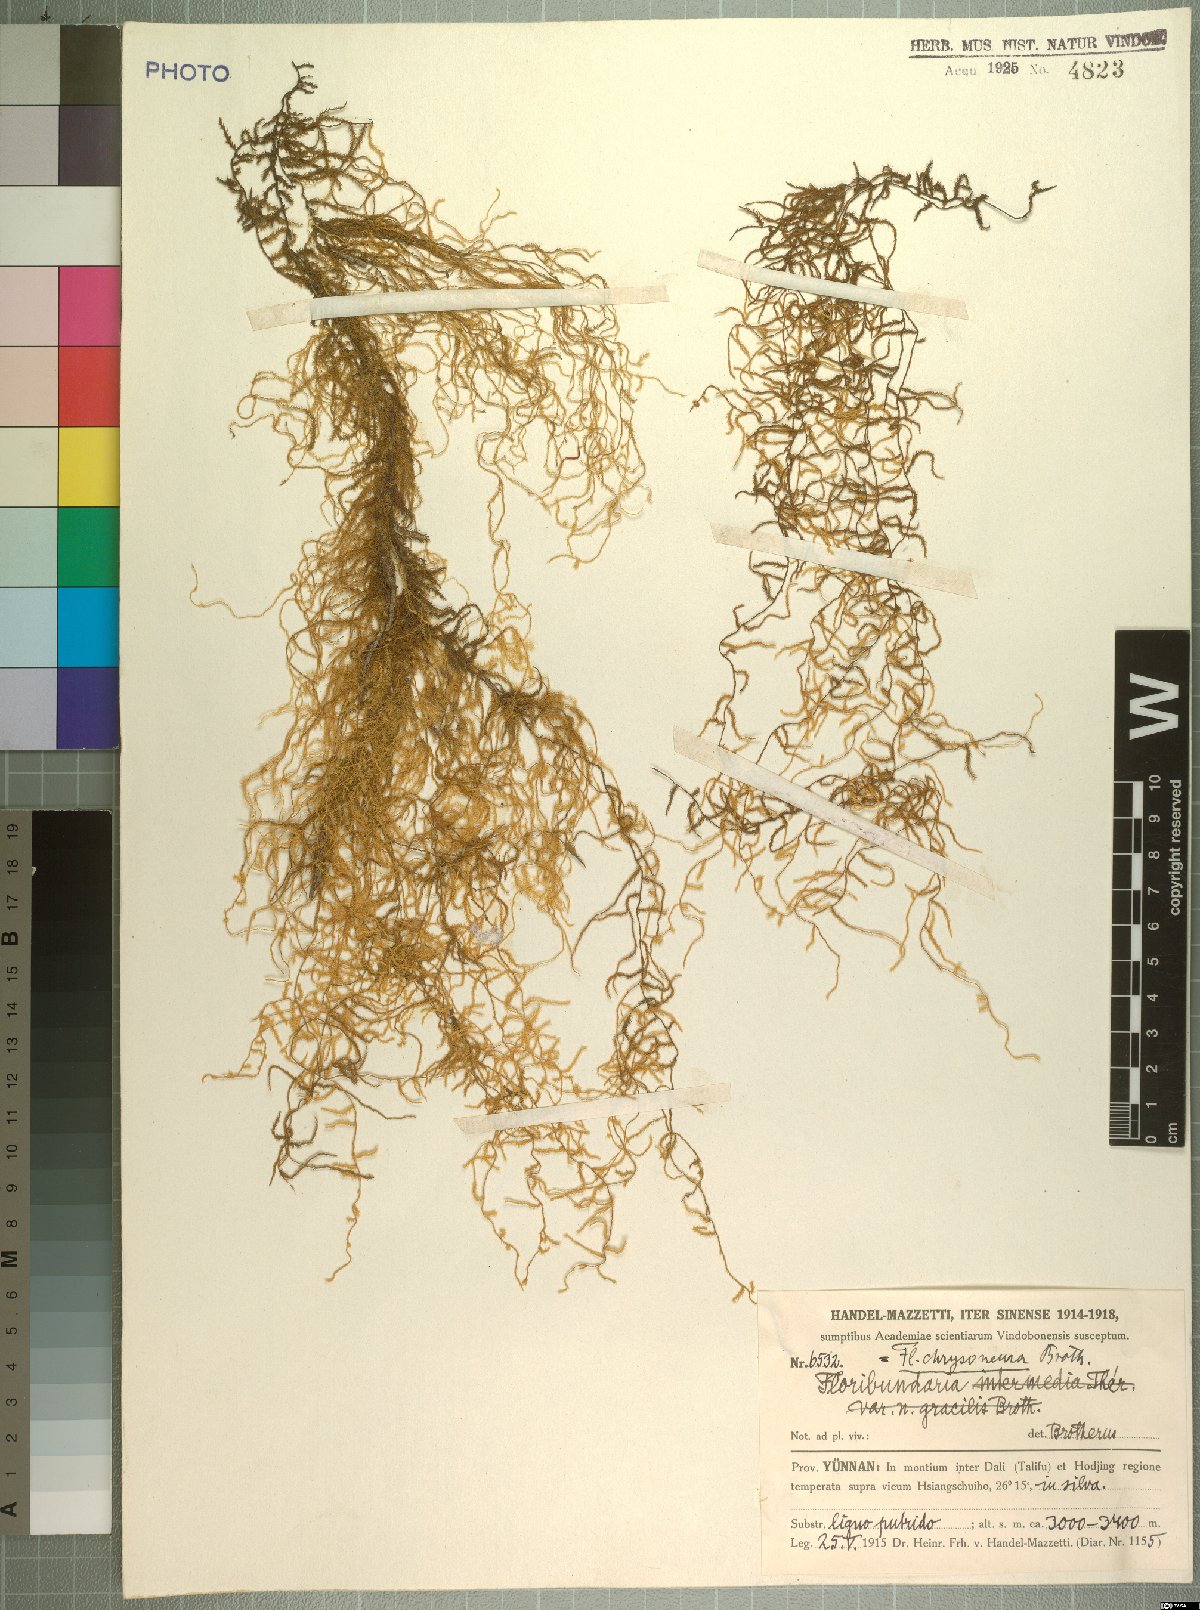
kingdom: Plantae
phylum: Bryophyta
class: Bryopsida
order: Hypnales
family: Meteoriaceae
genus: Barbella
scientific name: Barbella chrysonema
